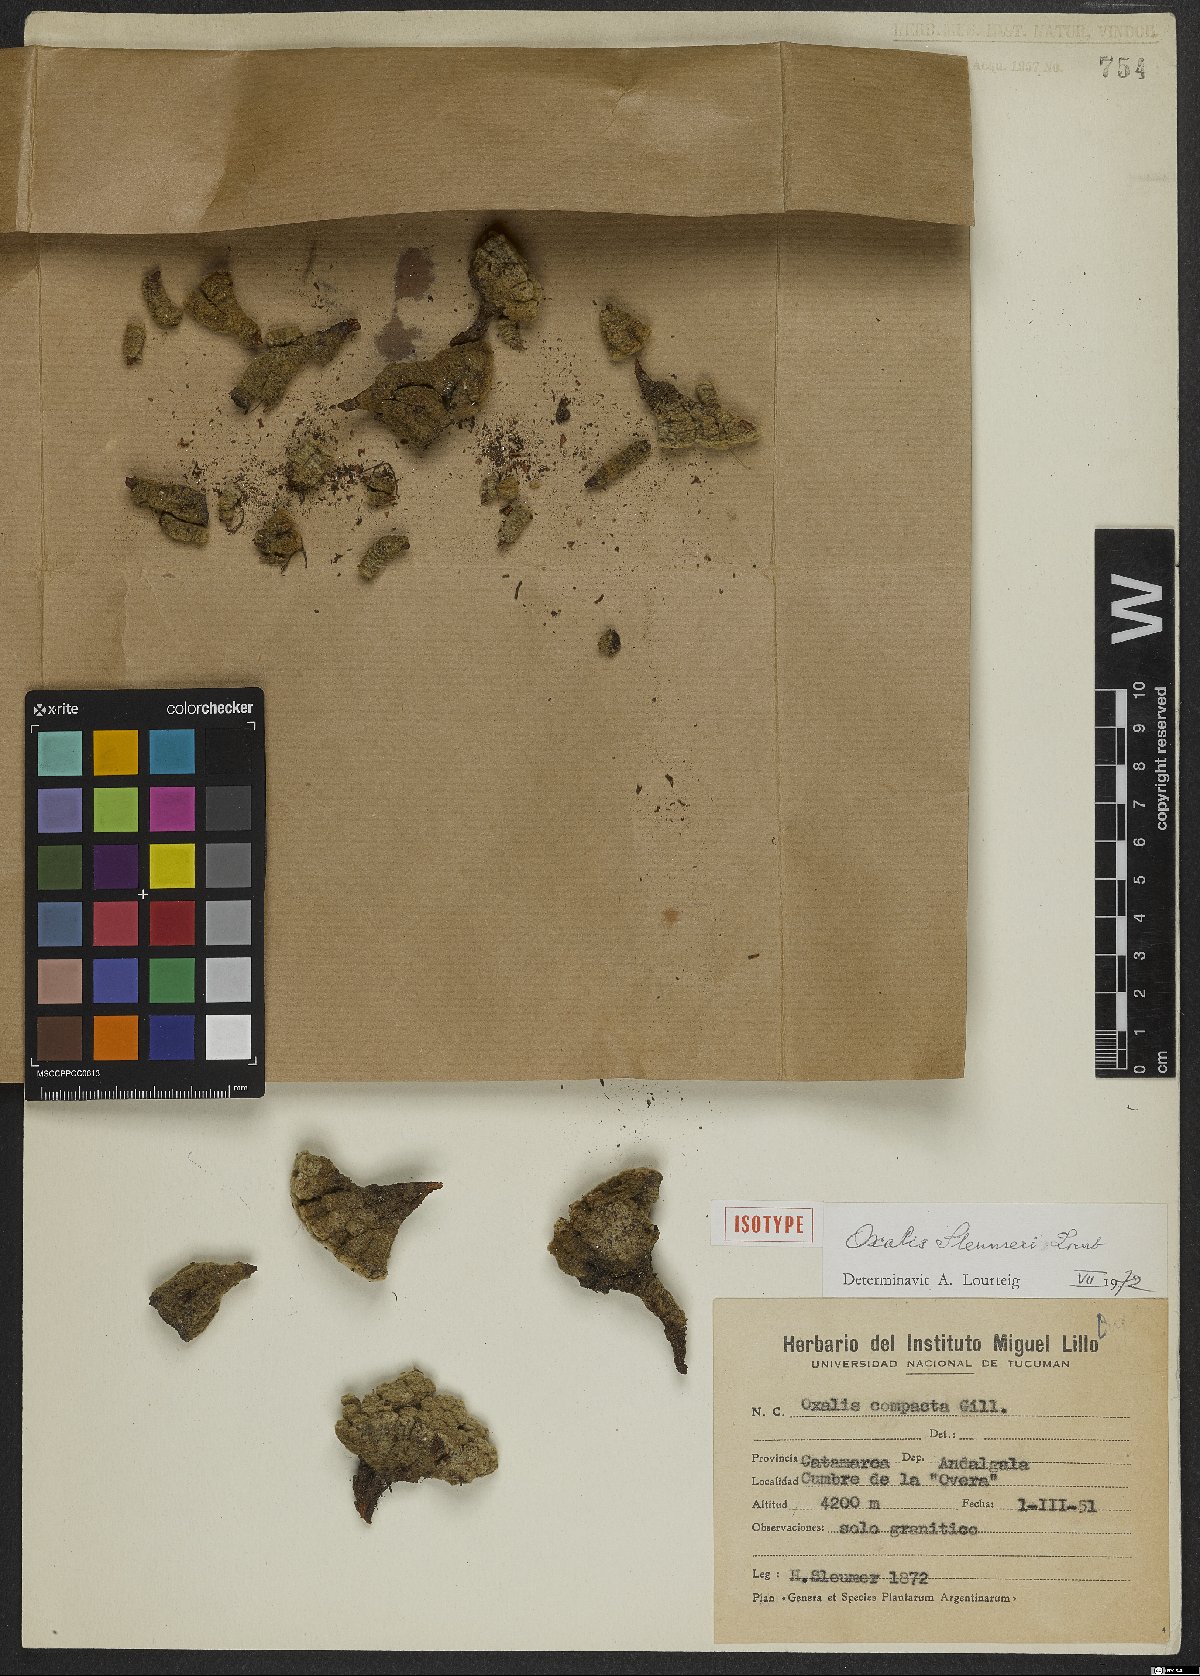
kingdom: Plantae
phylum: Tracheophyta
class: Magnoliopsida
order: Oxalidales
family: Oxalidaceae
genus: Oxalis
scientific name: Oxalis sleumeri
